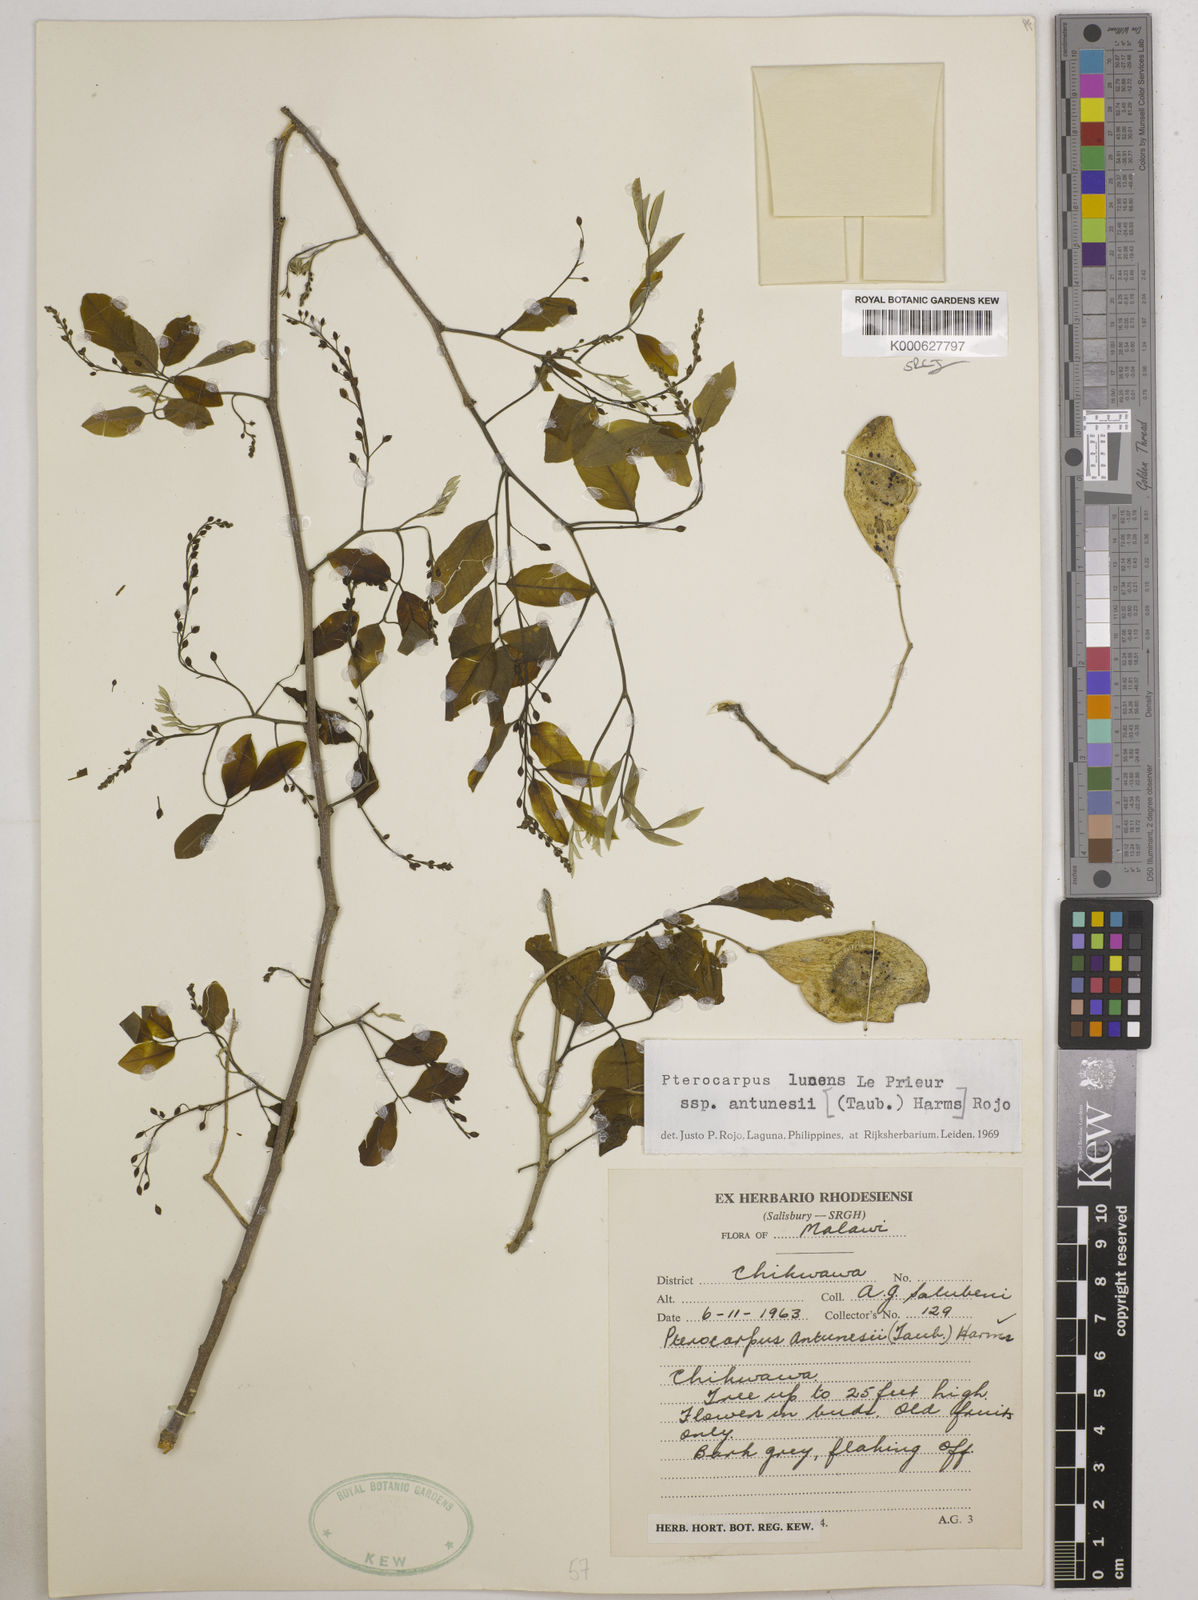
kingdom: Plantae
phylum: Tracheophyta
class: Magnoliopsida
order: Fabales
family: Fabaceae
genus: Pterocarpus
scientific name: Pterocarpus lucens
